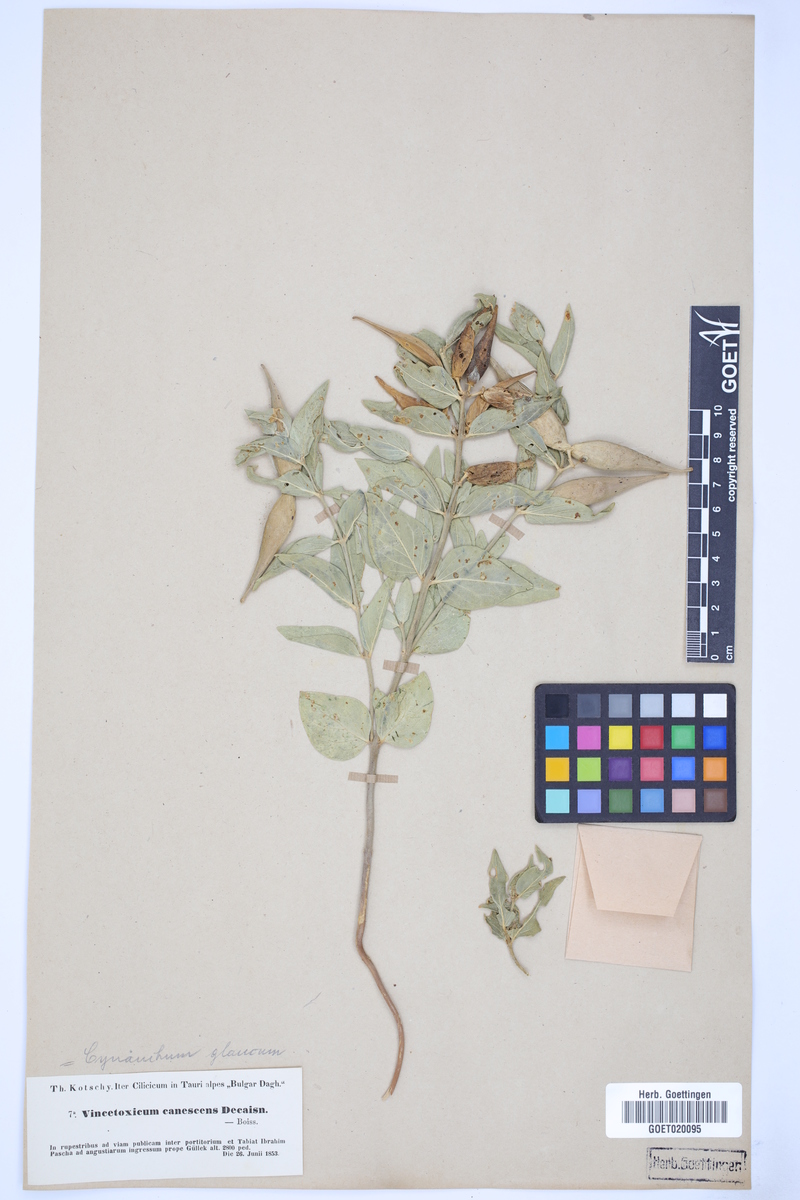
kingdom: Plantae
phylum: Tracheophyta
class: Magnoliopsida
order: Gentianales
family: Apocynaceae
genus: Vincetoxicum
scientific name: Vincetoxicum canescens
